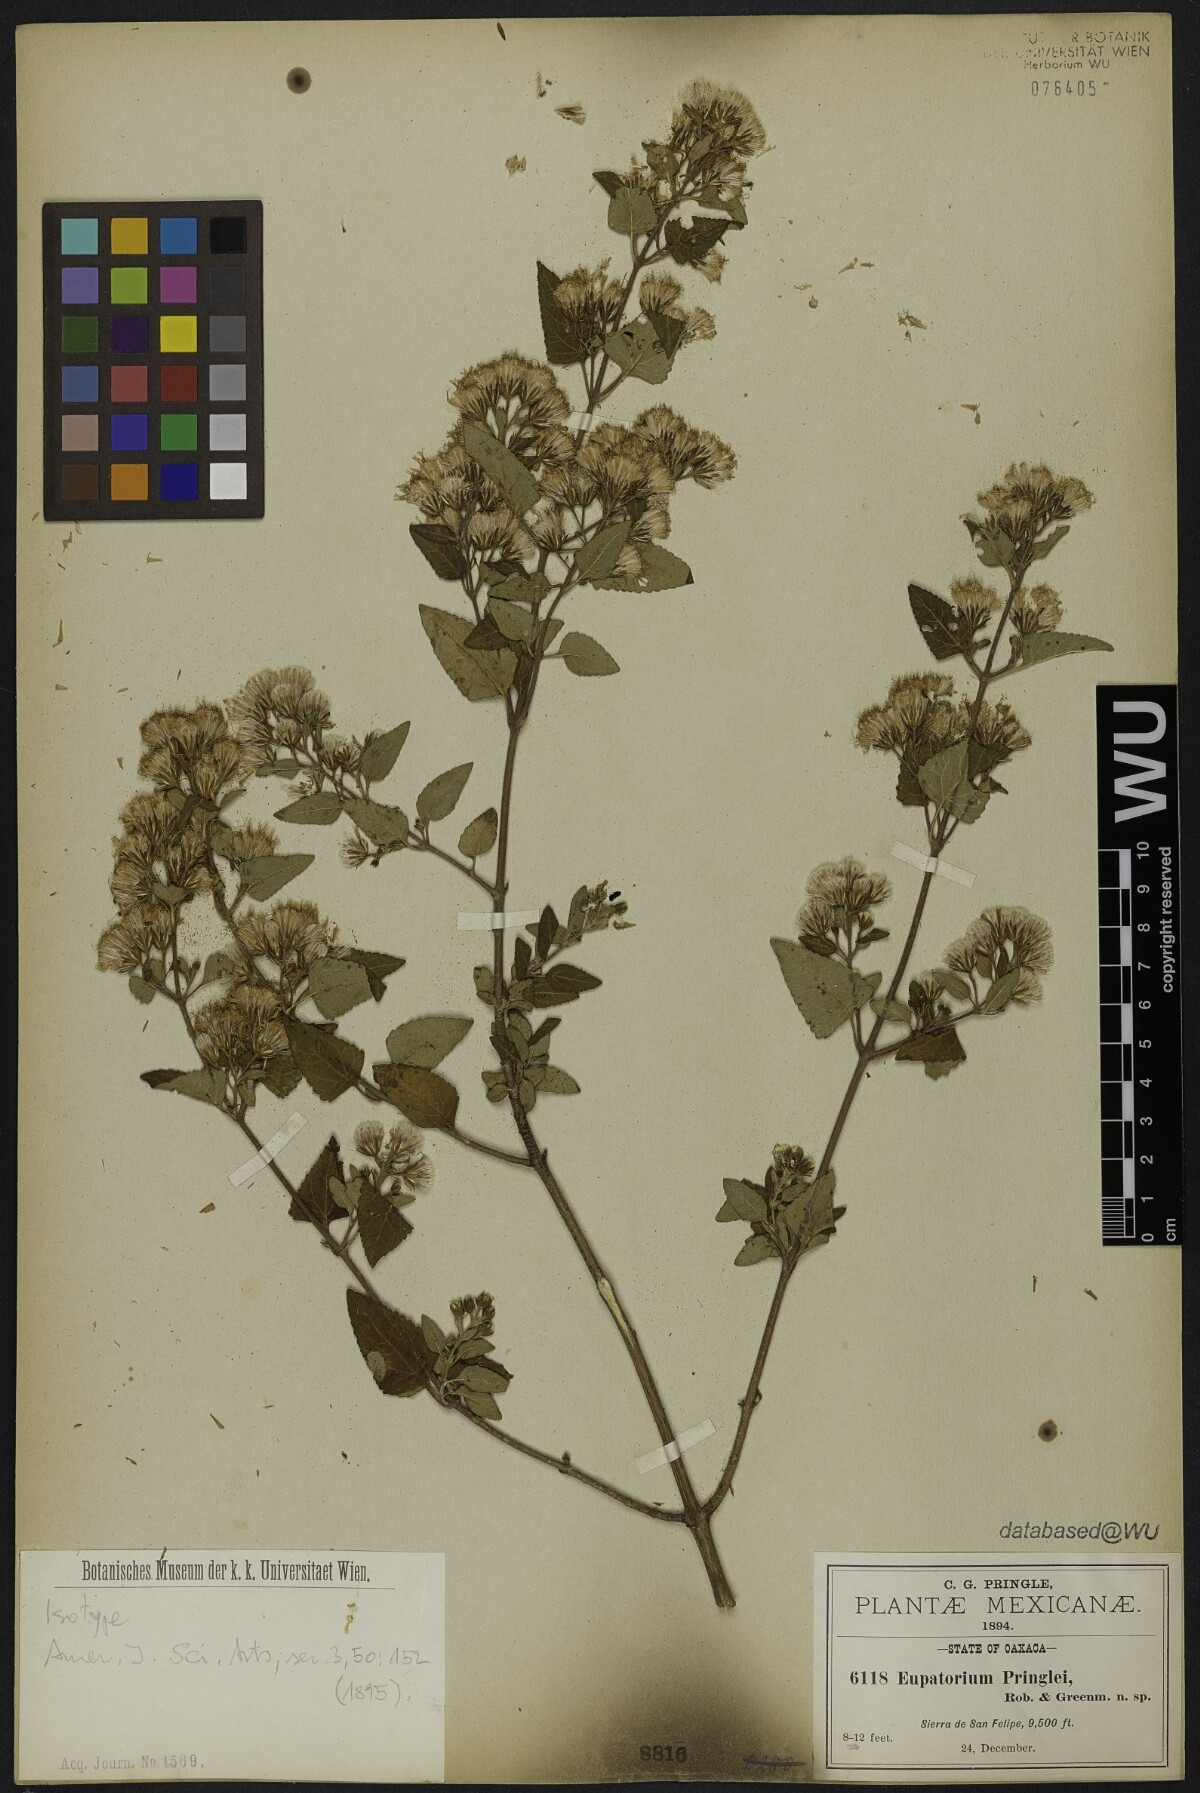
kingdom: Plantae
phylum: Tracheophyta
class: Magnoliopsida
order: Asterales
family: Asteraceae
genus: Ageratina
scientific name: Ageratina pringlei
